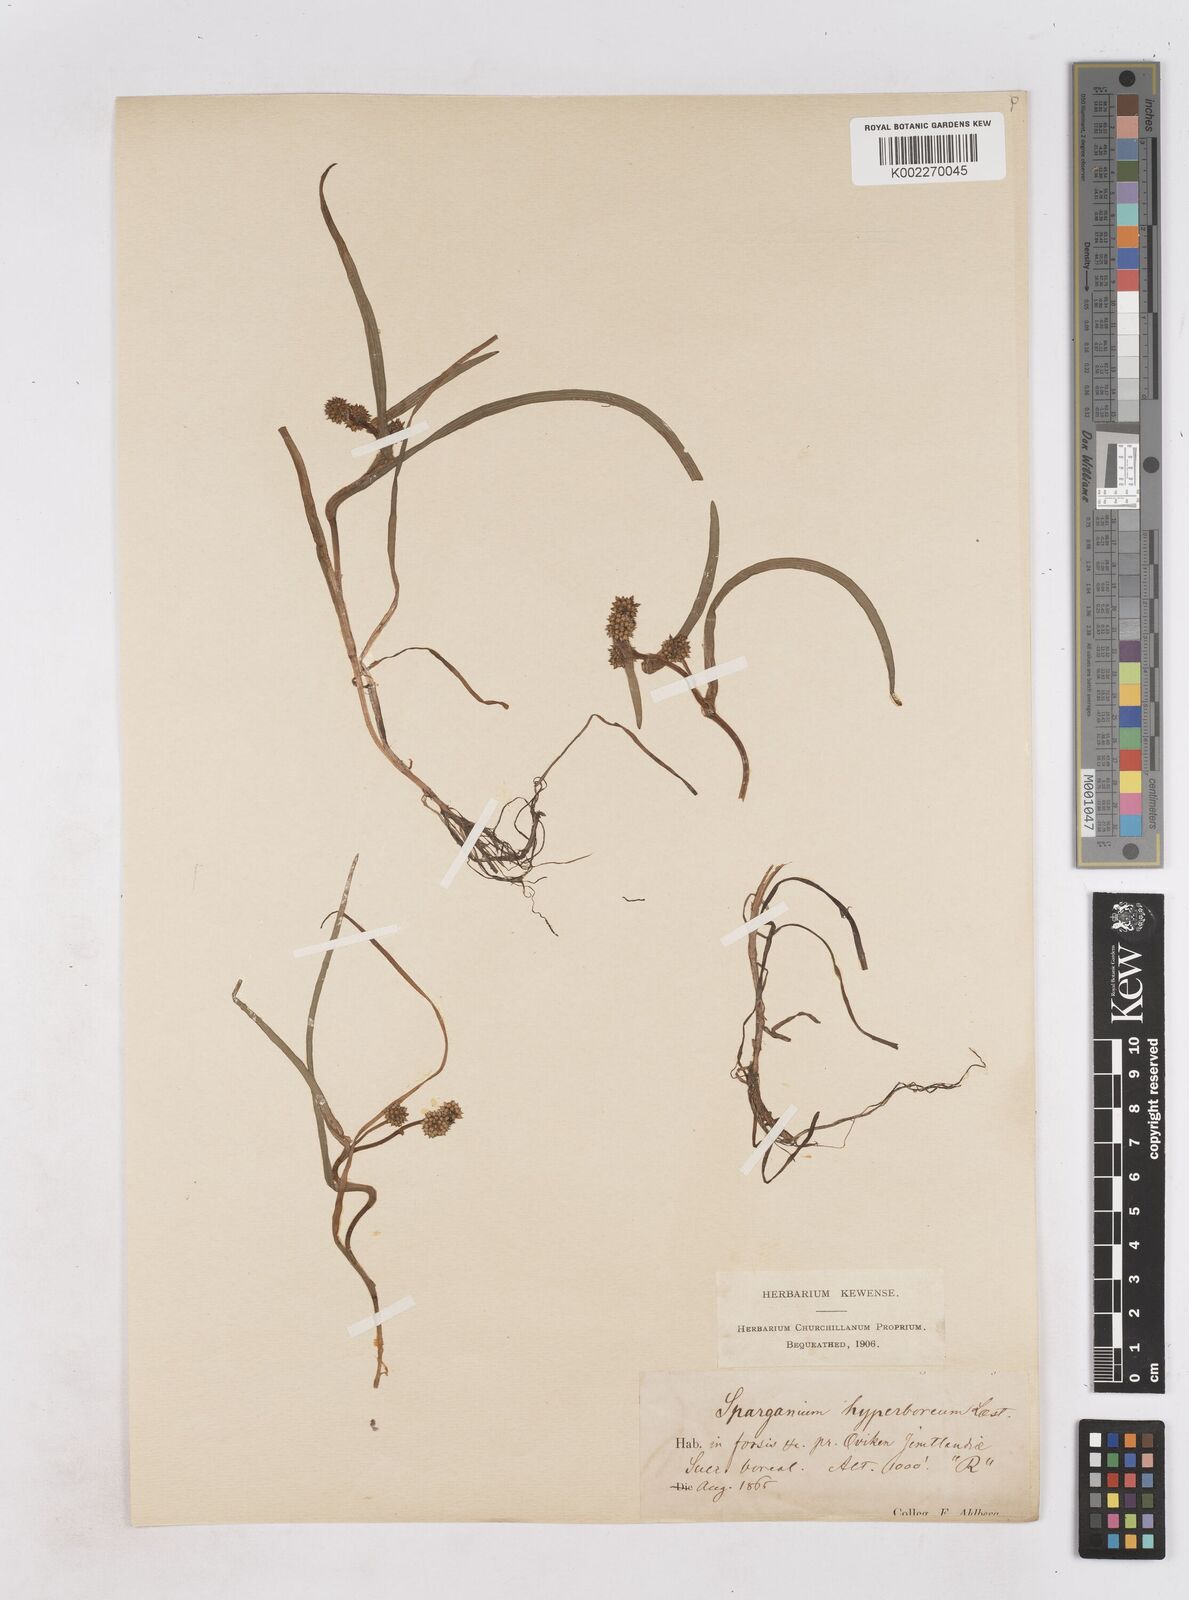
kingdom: Plantae
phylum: Tracheophyta
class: Liliopsida
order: Poales
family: Typhaceae
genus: Sparganium
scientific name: Sparganium hyperboreum
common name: Arctic burreed
